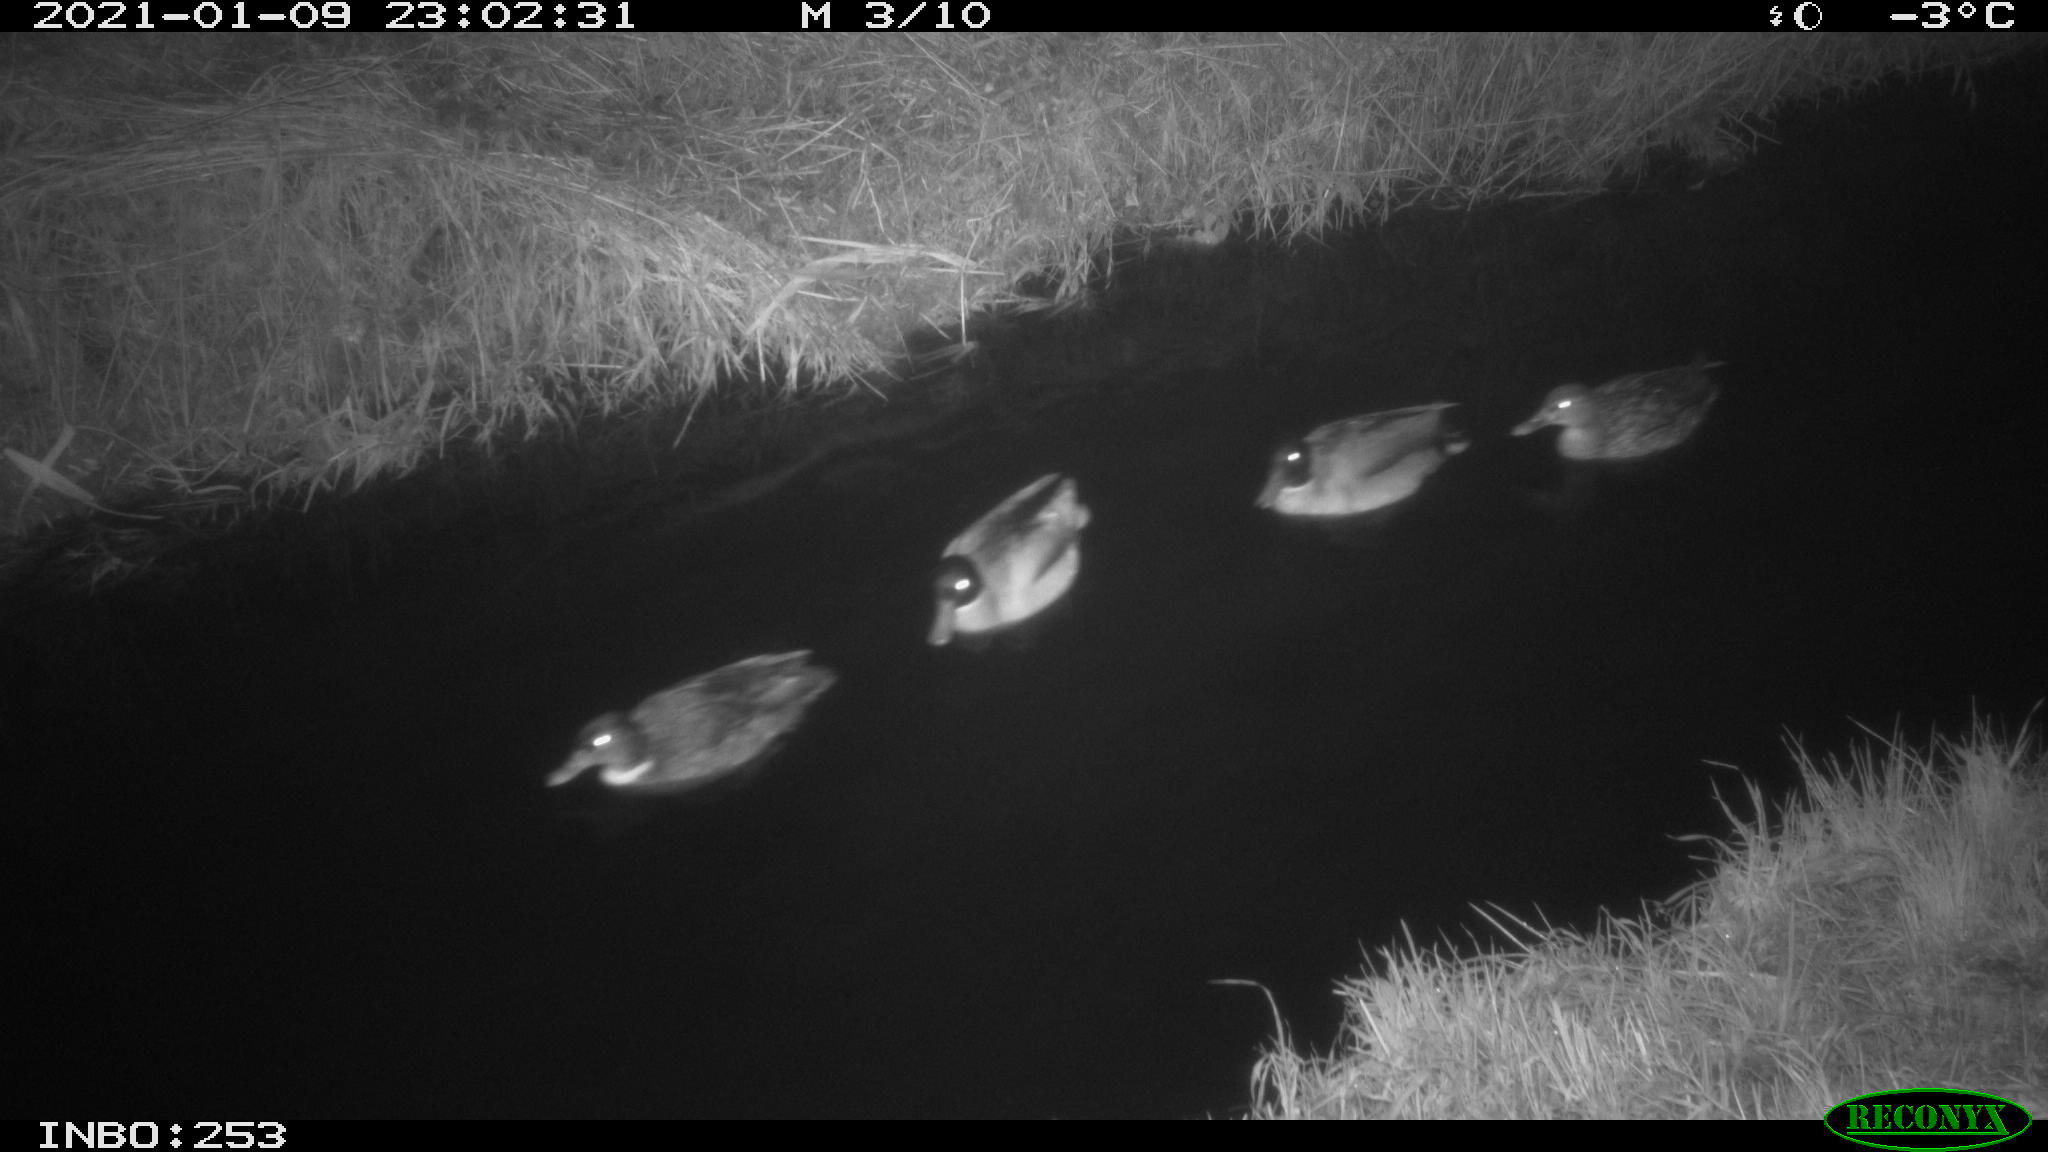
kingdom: Animalia
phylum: Chordata
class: Aves
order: Anseriformes
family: Anatidae
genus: Anas
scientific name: Anas platyrhynchos
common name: Mallard
